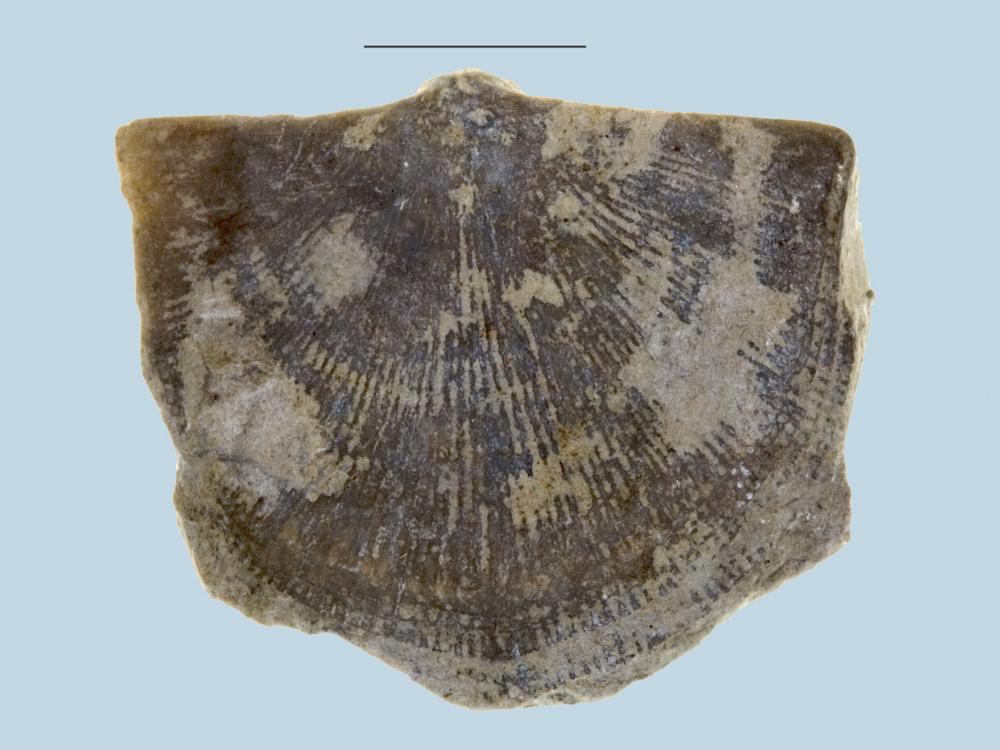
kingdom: Animalia
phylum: Brachiopoda
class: Rhynchonellata
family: Clitambonitidae
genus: Vellamo
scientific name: Vellamo Orthis verneuili
